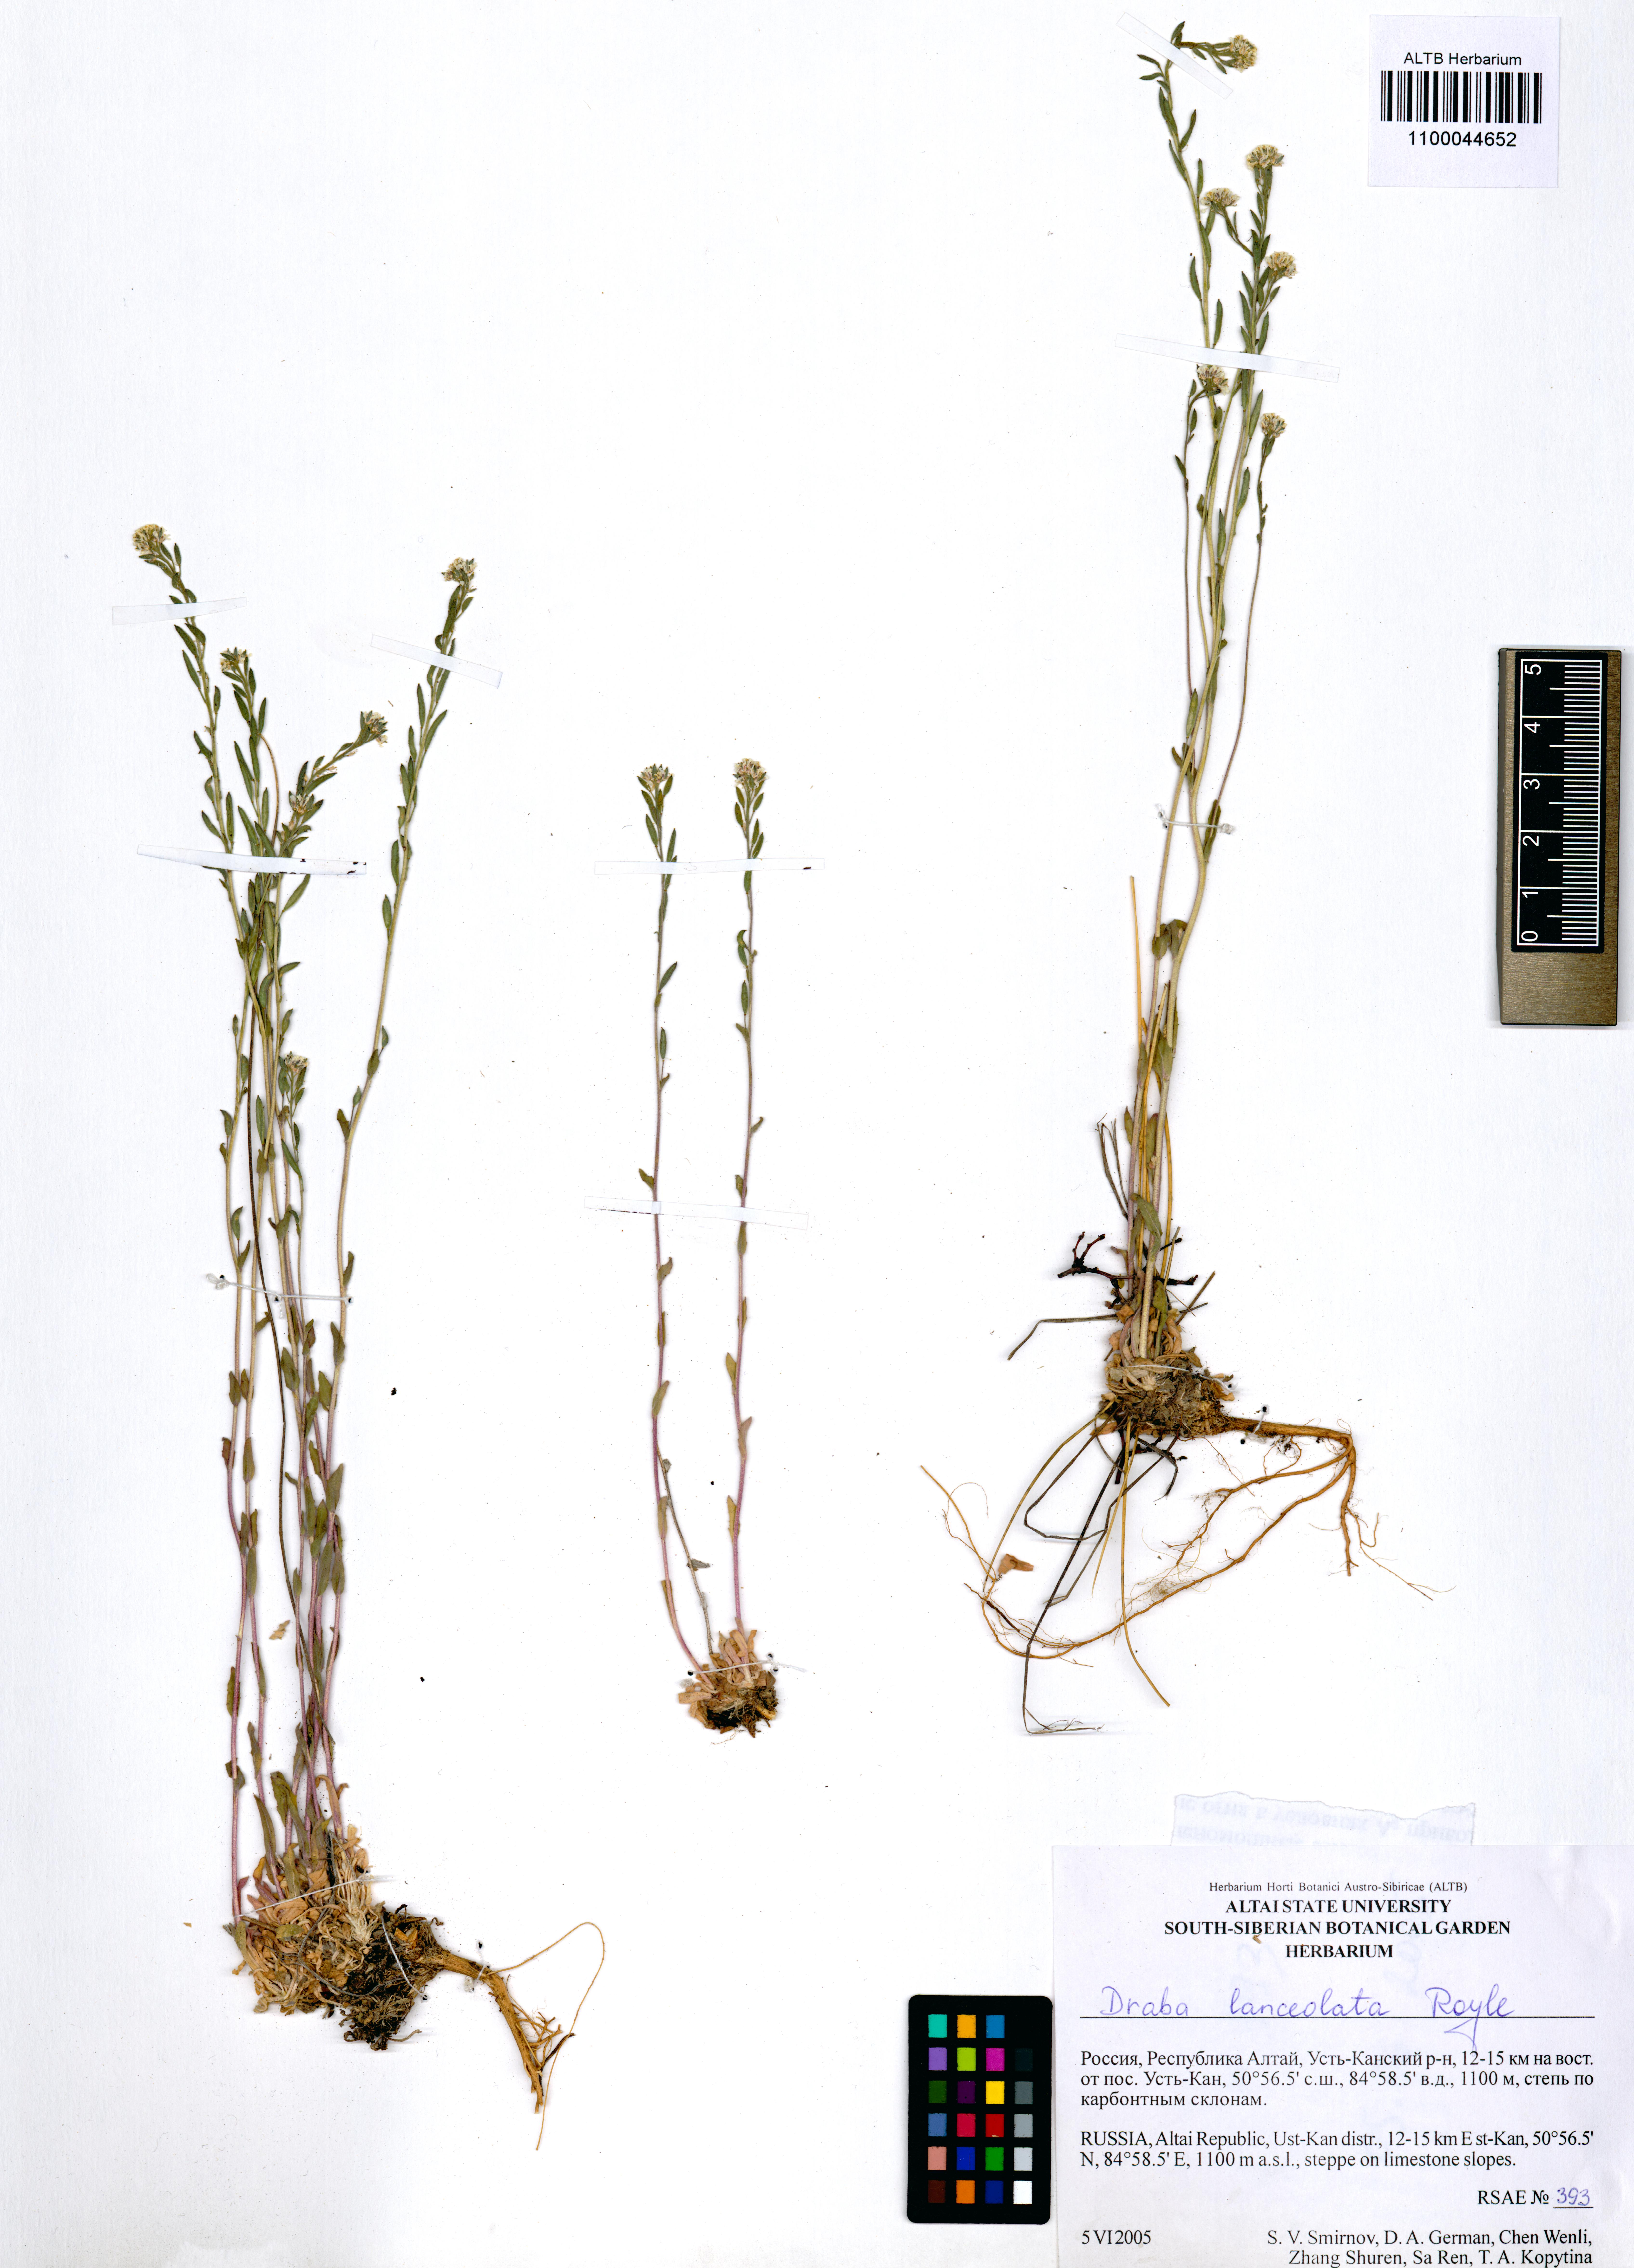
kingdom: Plantae
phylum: Tracheophyta
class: Magnoliopsida
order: Brassicales
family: Brassicaceae
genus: Draba
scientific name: Draba lanceolata
